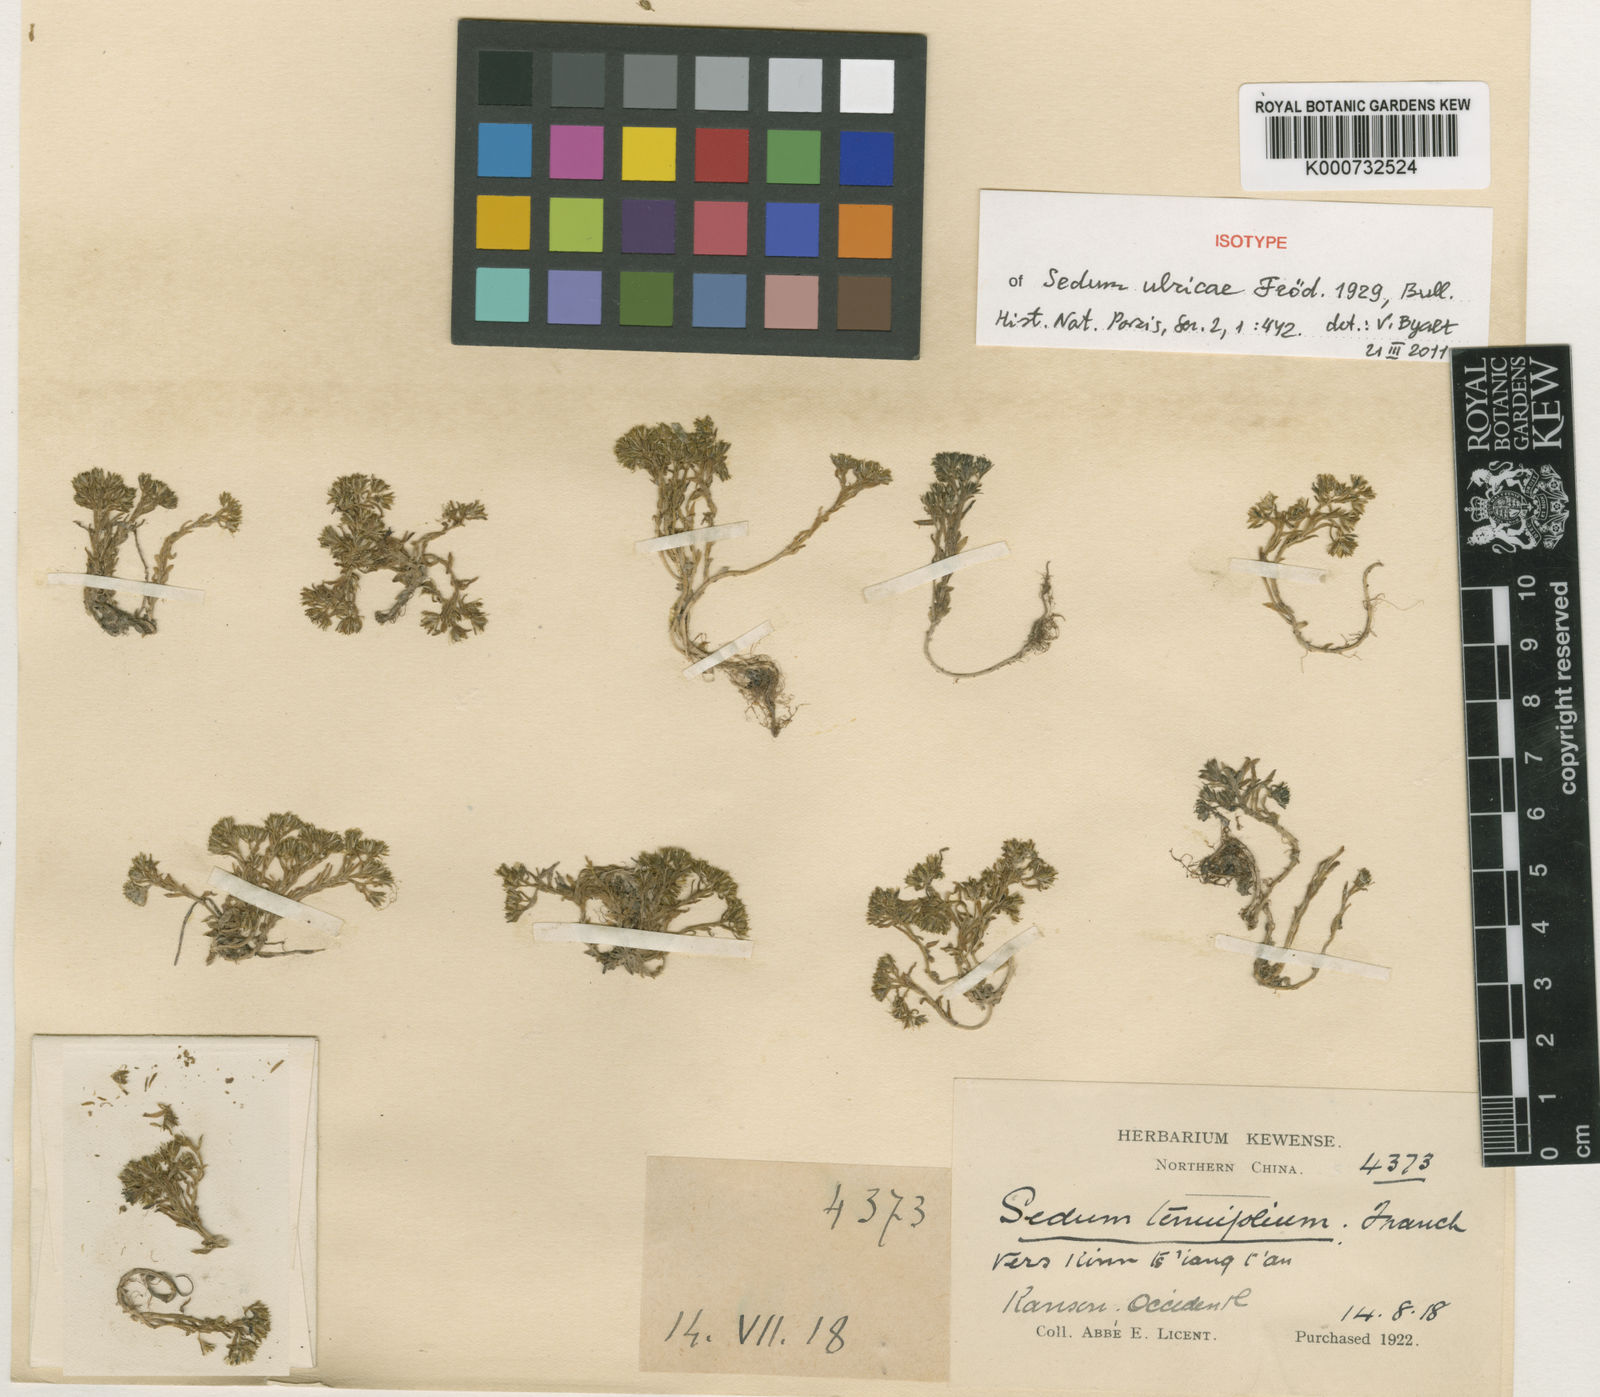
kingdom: Plantae
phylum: Tracheophyta
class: Magnoliopsida
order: Saxifragales
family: Crassulaceae
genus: Sedum
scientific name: Sedum ulricae
